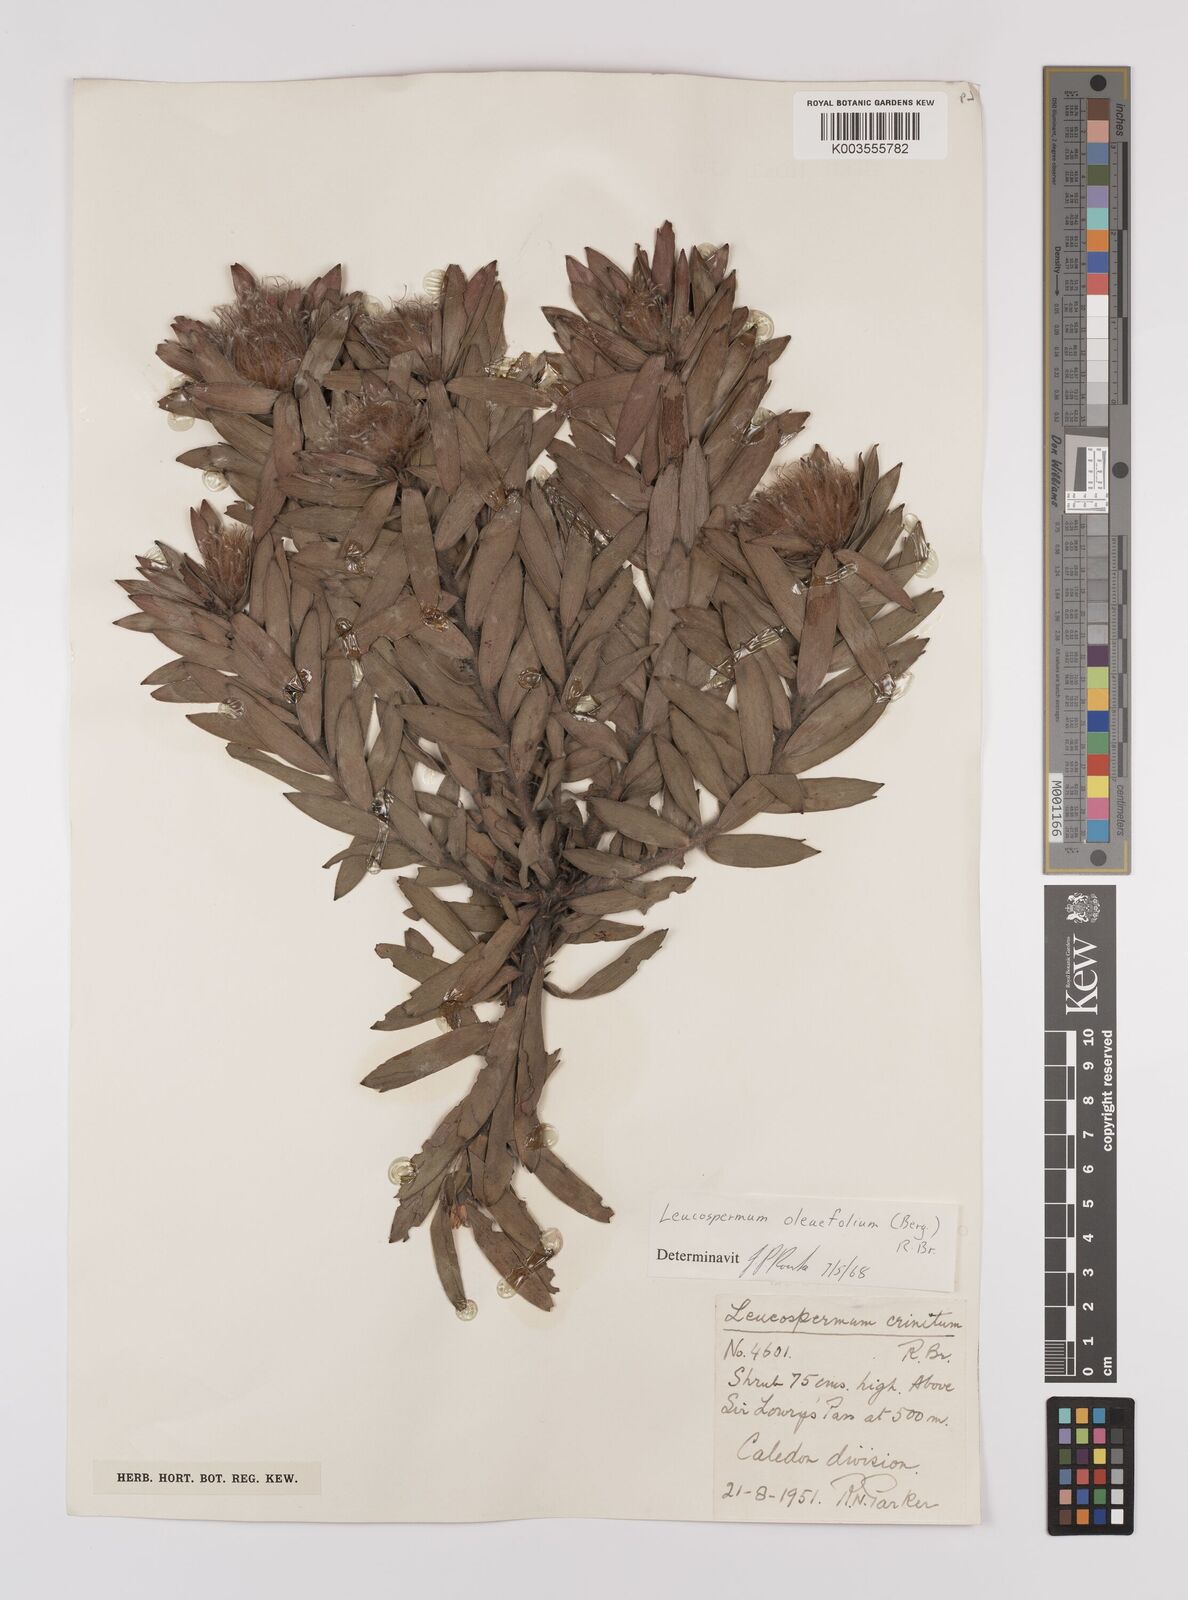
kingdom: Plantae
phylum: Tracheophyta
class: Magnoliopsida
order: Proteales
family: Proteaceae
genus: Leucospermum
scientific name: Leucospermum oleifolium
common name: Matches
